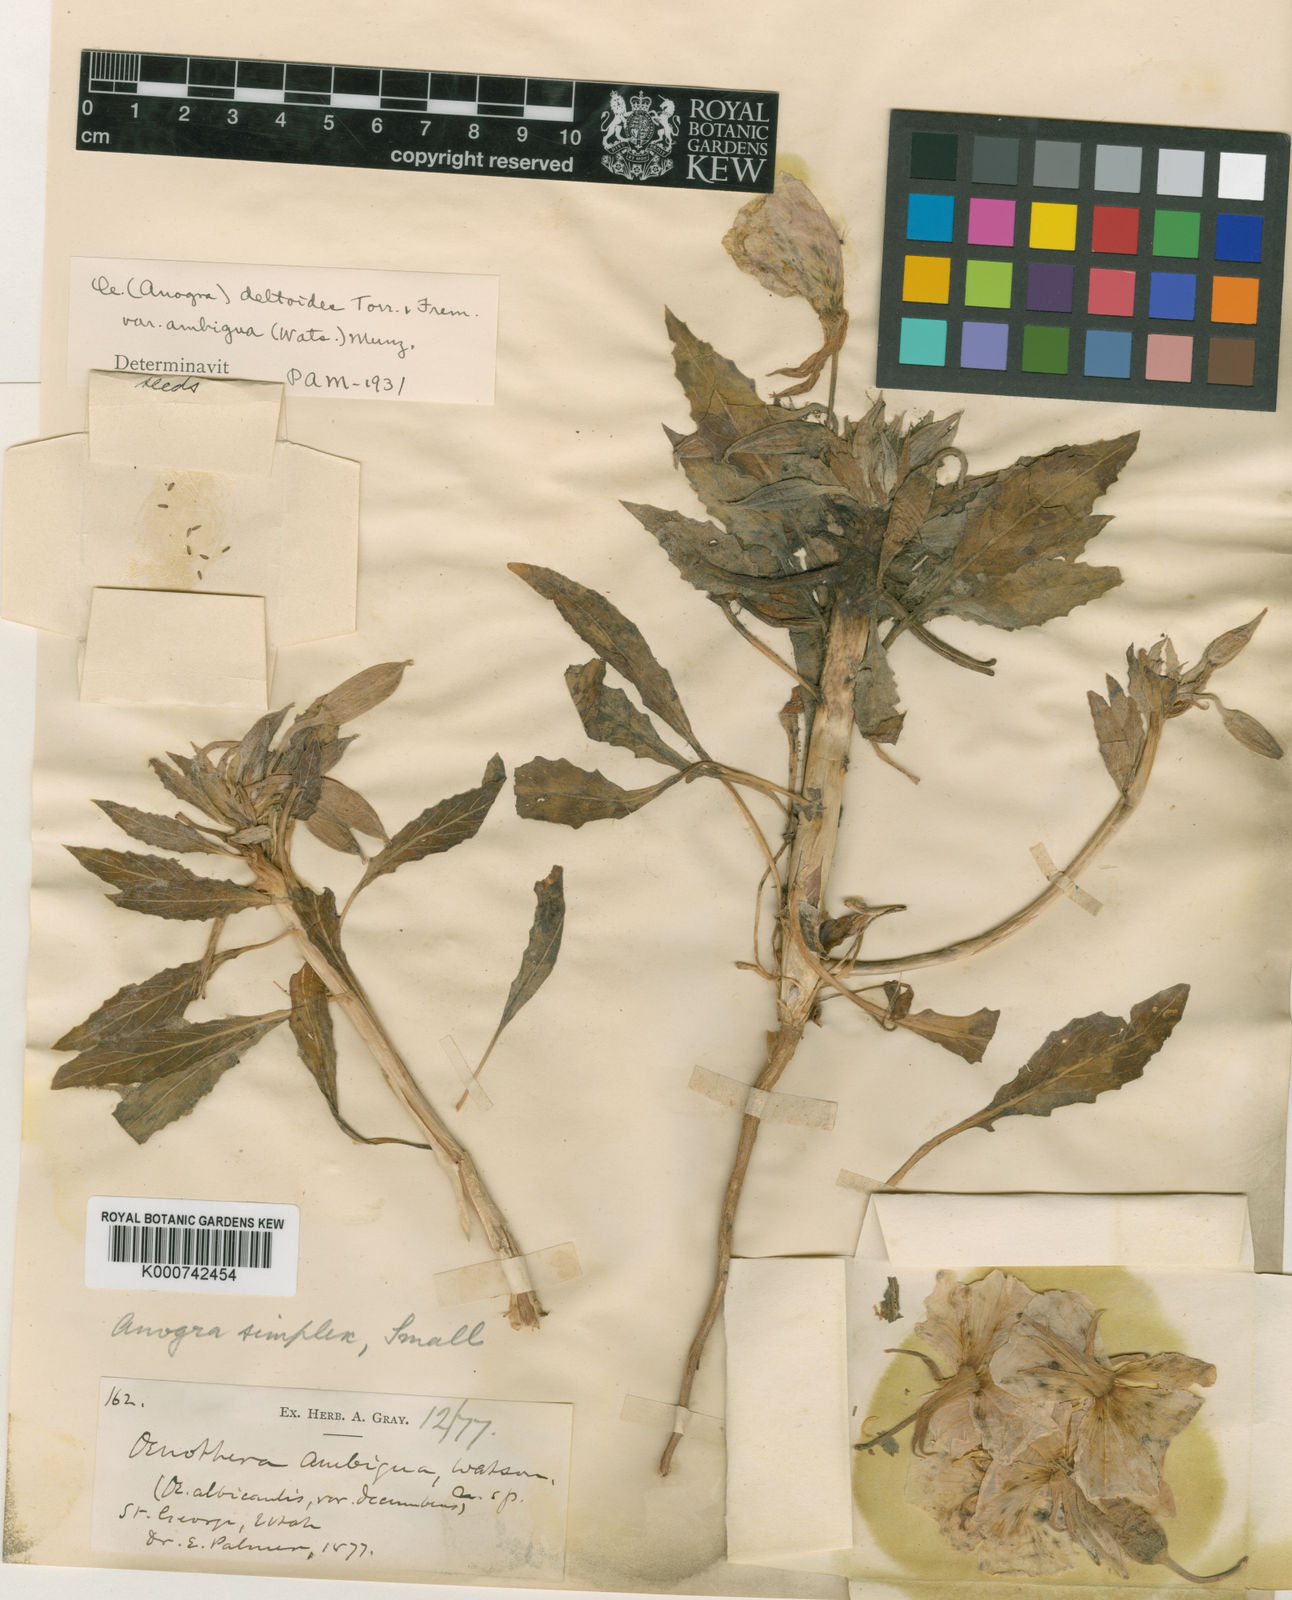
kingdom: Plantae
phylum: Tracheophyta
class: Magnoliopsida
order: Myrtales
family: Onagraceae
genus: Oenothera
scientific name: Oenothera
